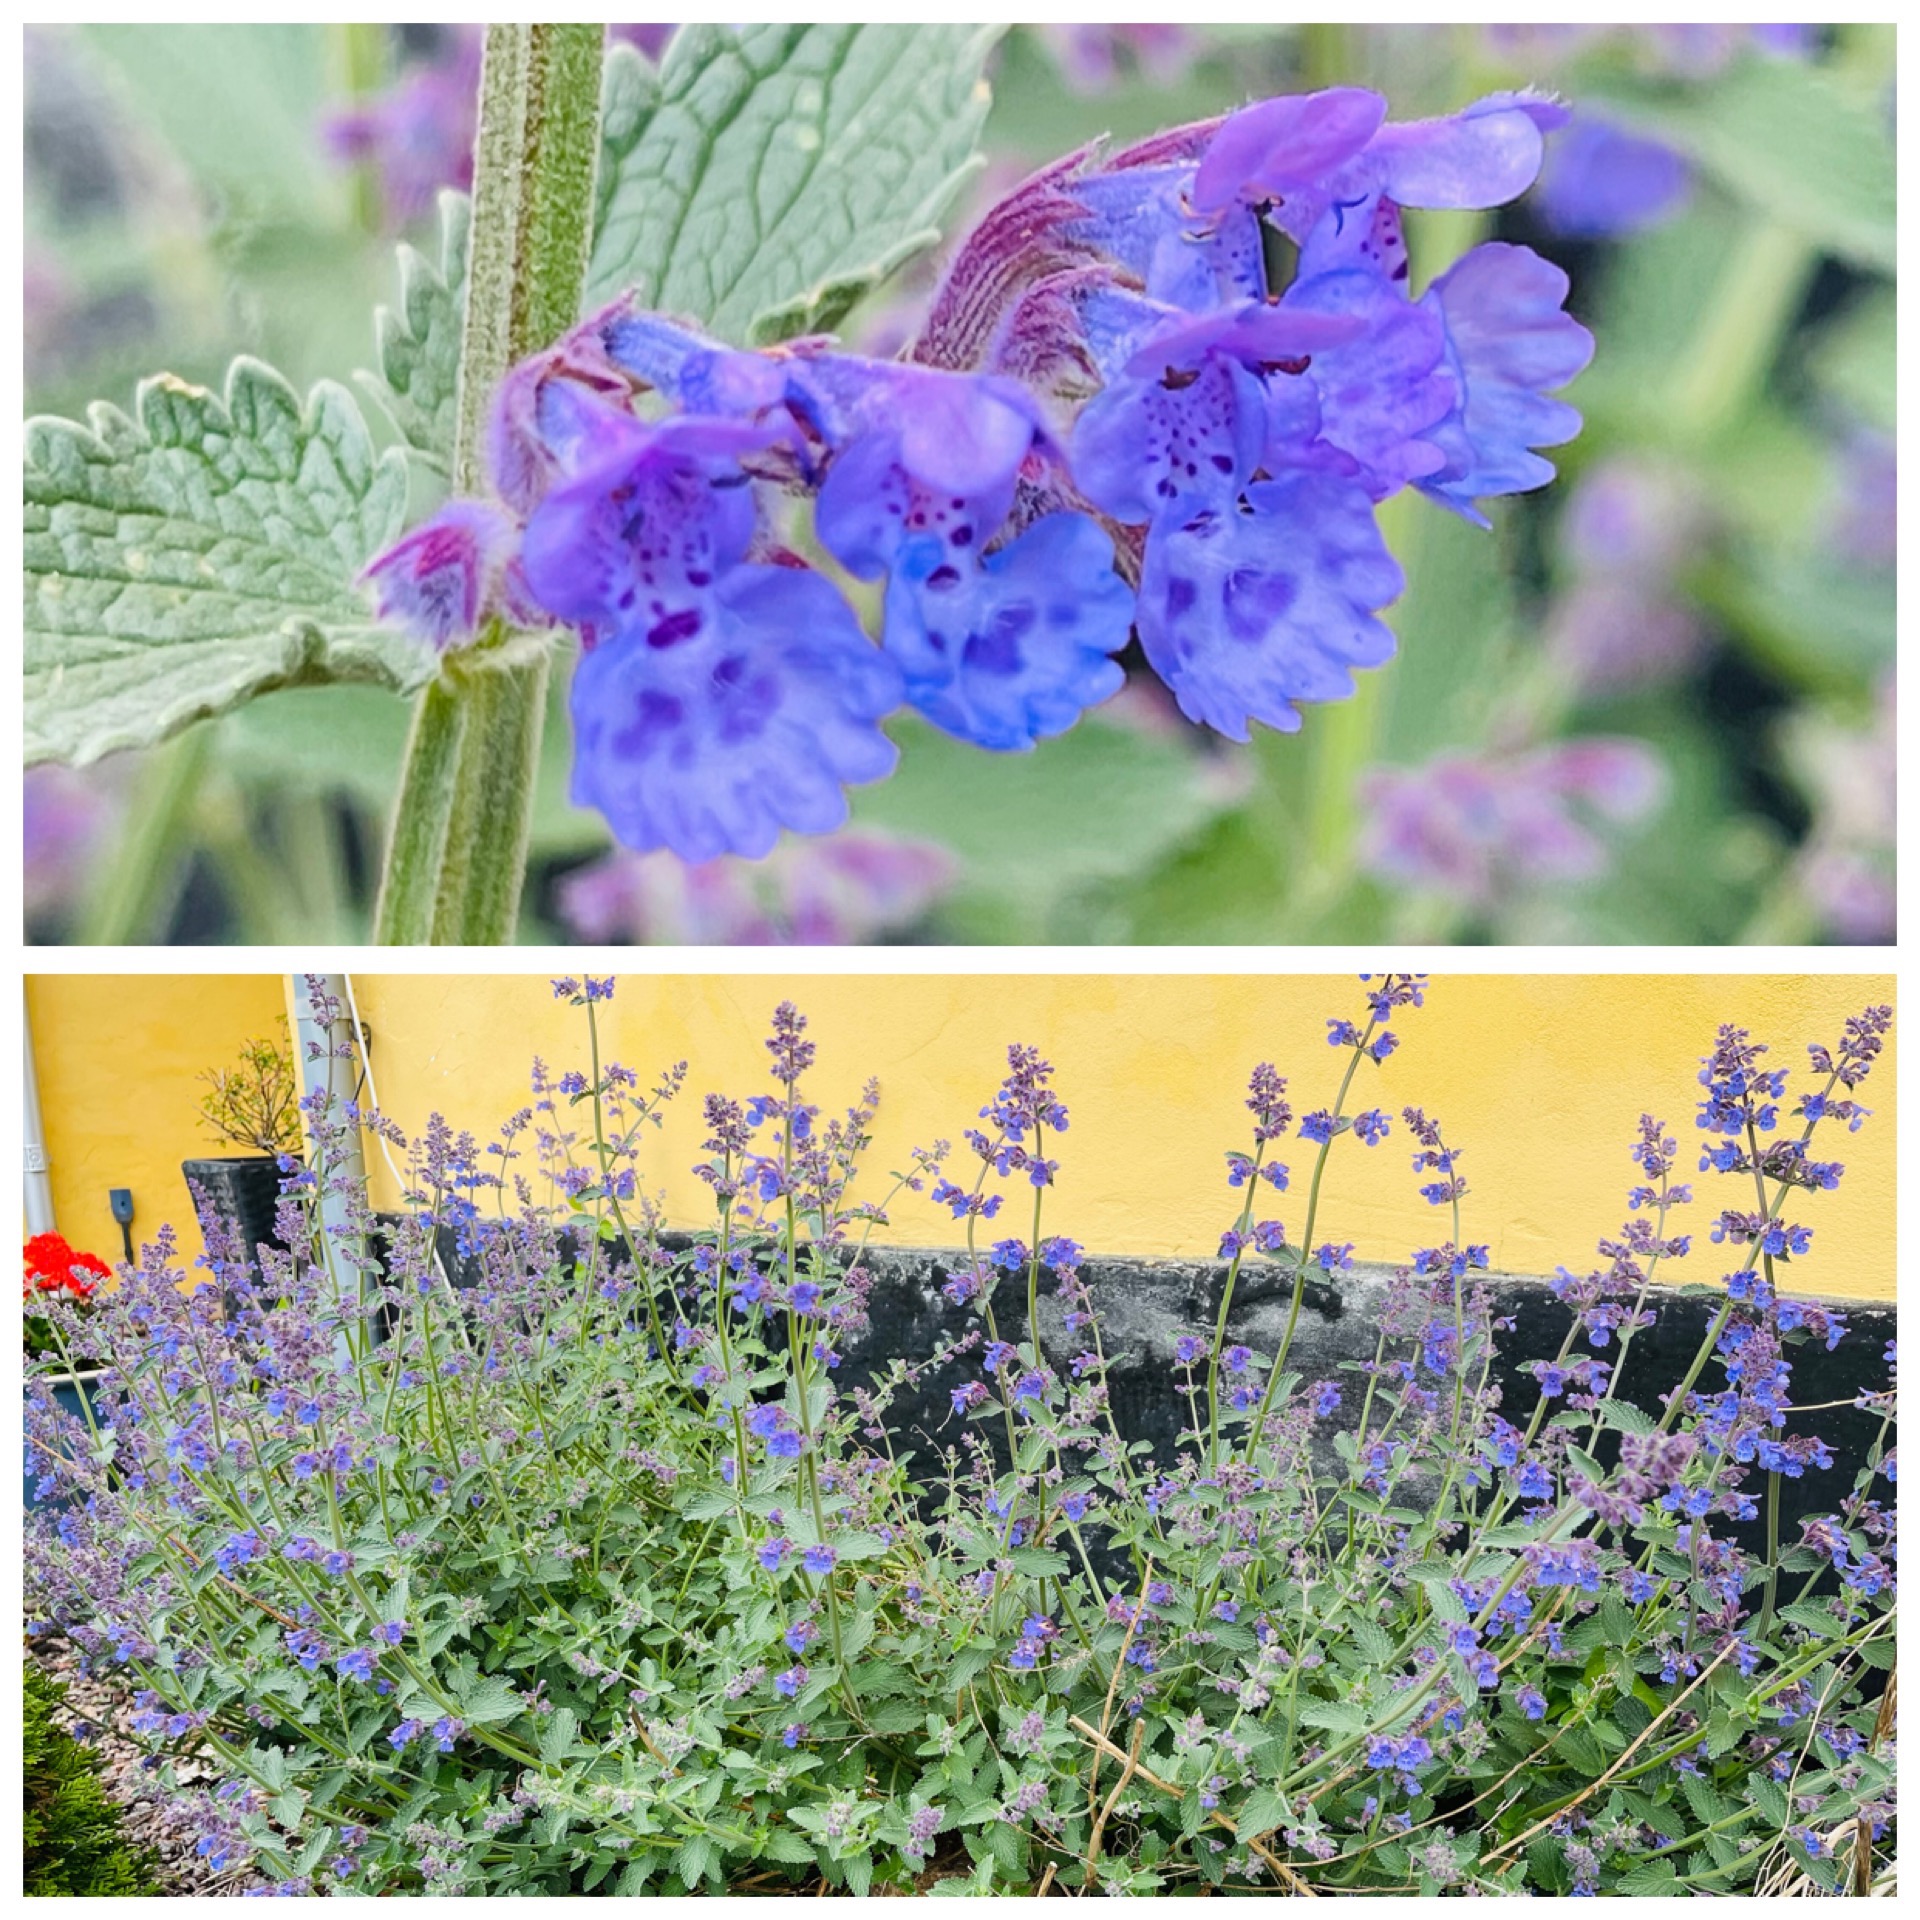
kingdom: Plantae
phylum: Tracheophyta
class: Magnoliopsida
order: Lamiales
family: Lamiaceae
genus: Nepeta
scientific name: Nepeta faassenii
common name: Almindelig blåkant
